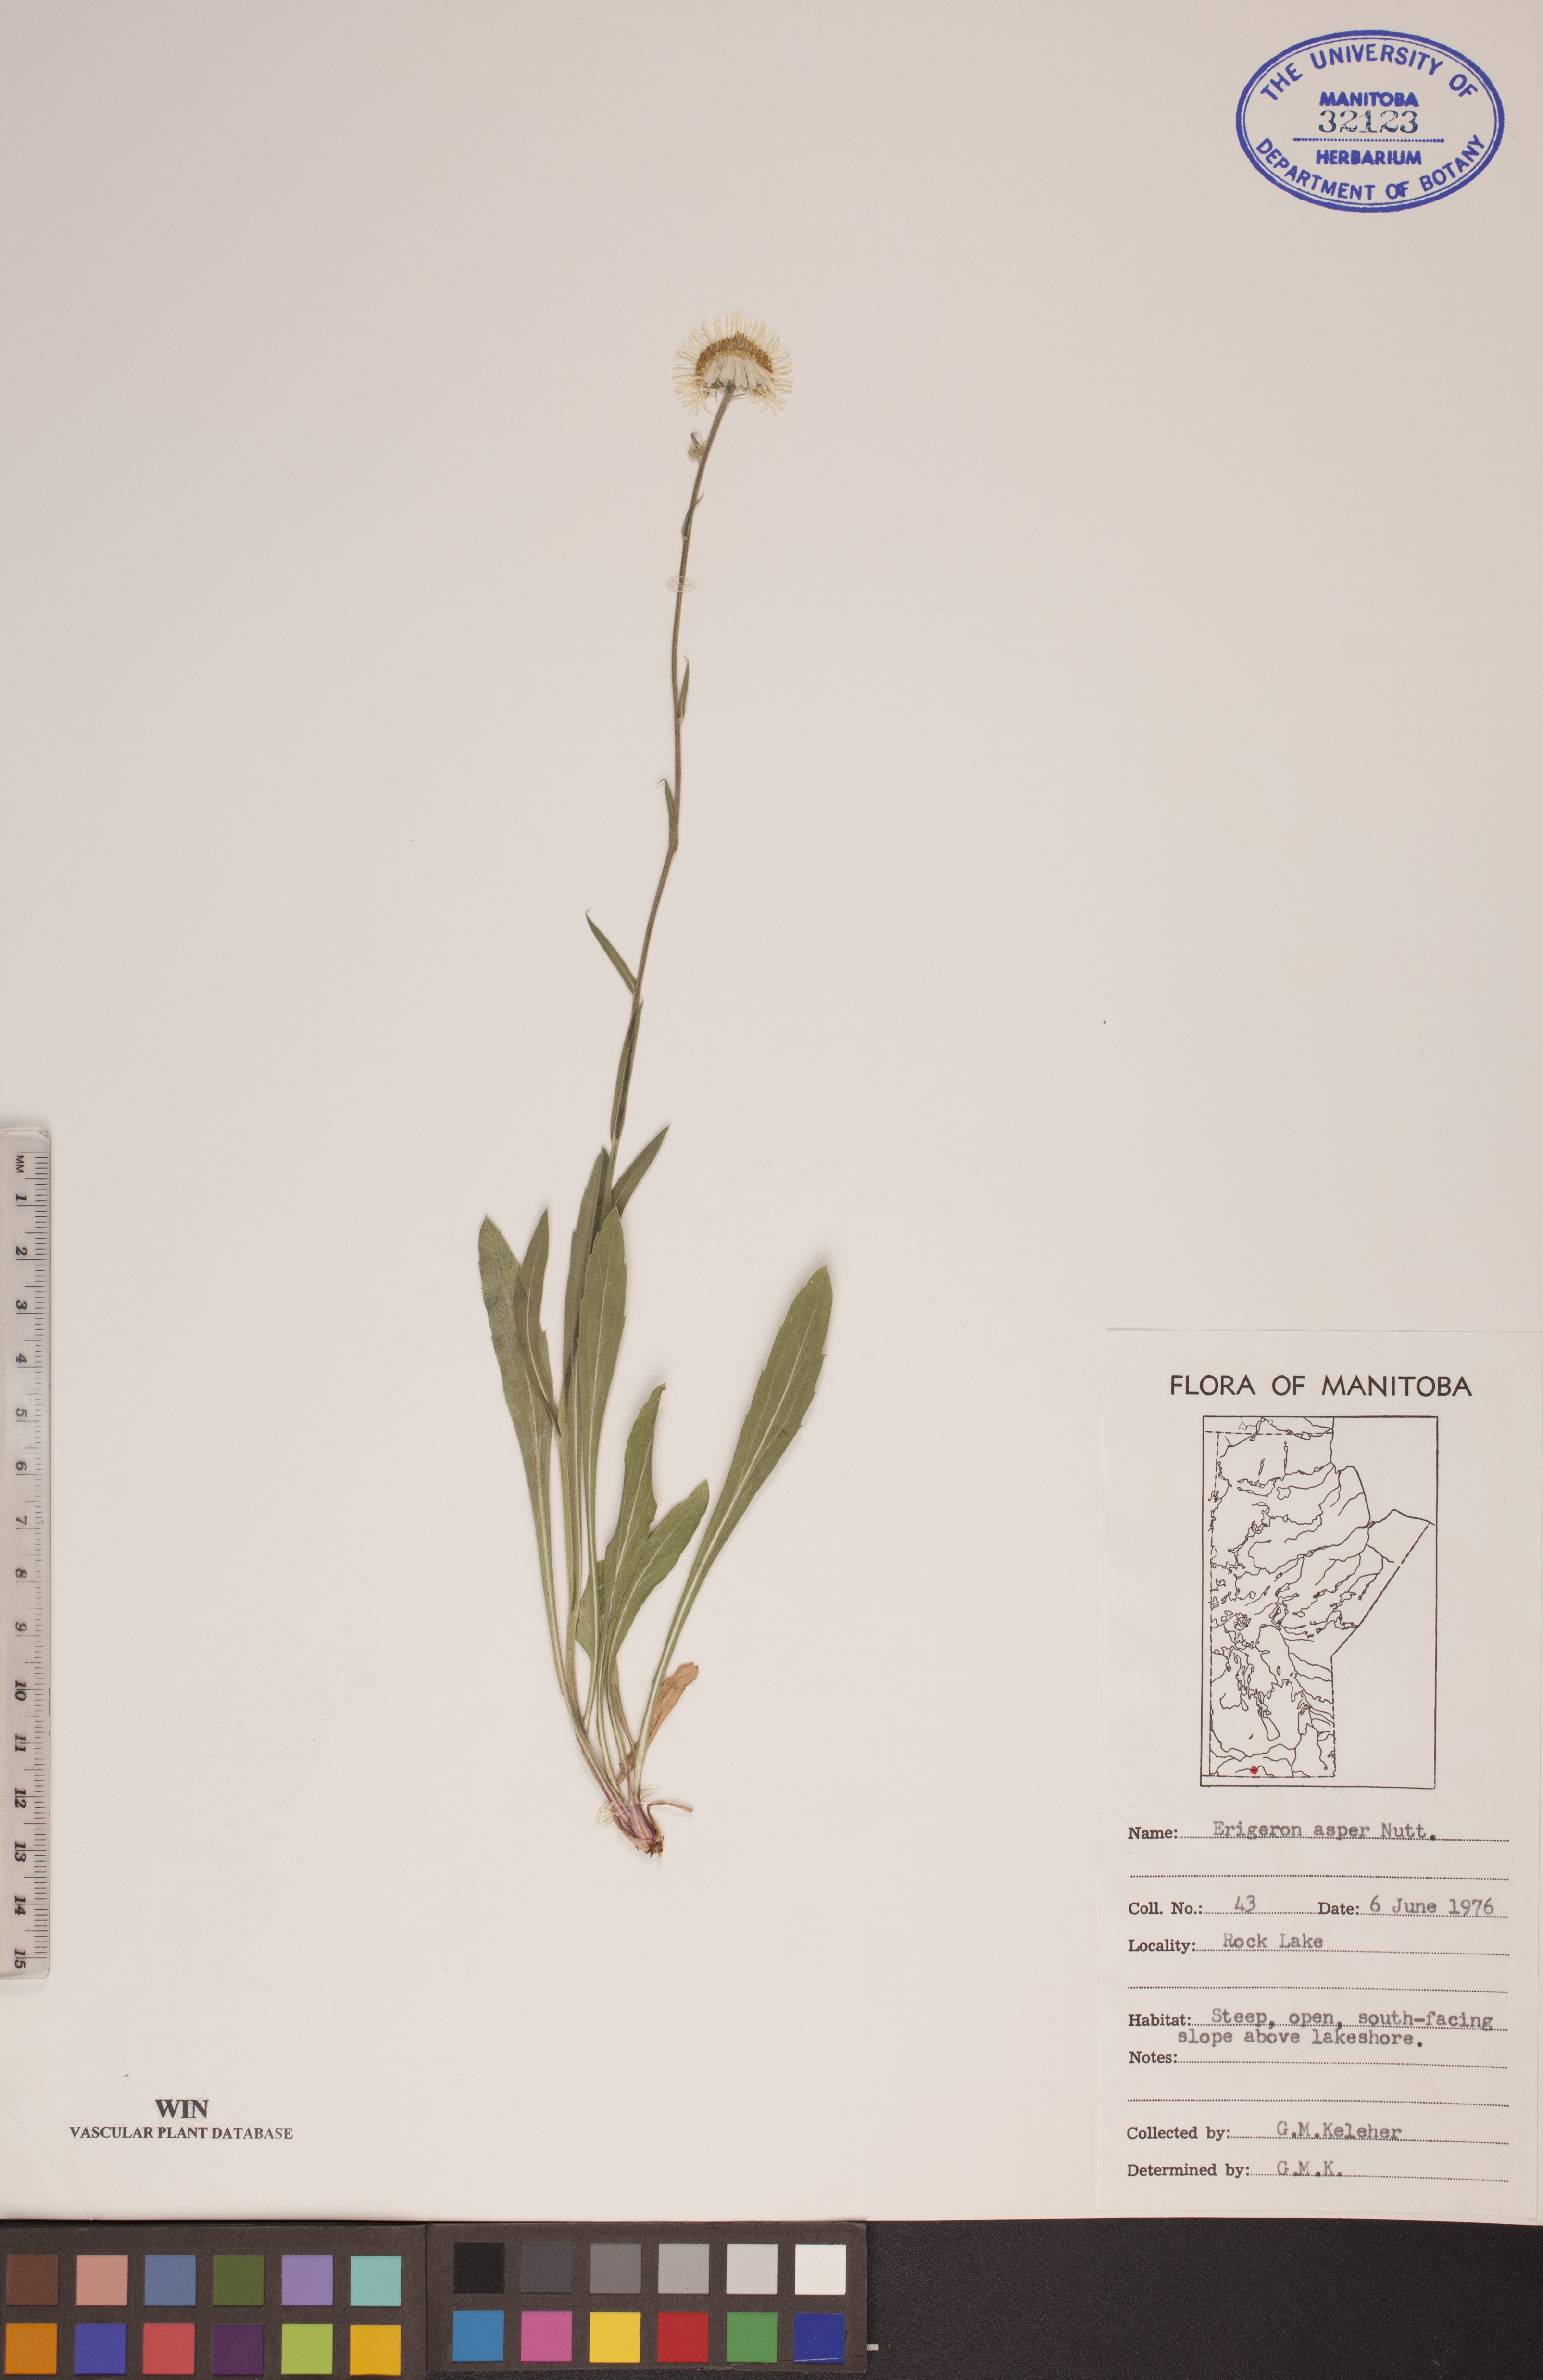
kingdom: Plantae
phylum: Tracheophyta
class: Magnoliopsida
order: Asterales
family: Asteraceae
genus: Erigeron
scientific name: Erigeron glabellus
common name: Smooth fleabane
